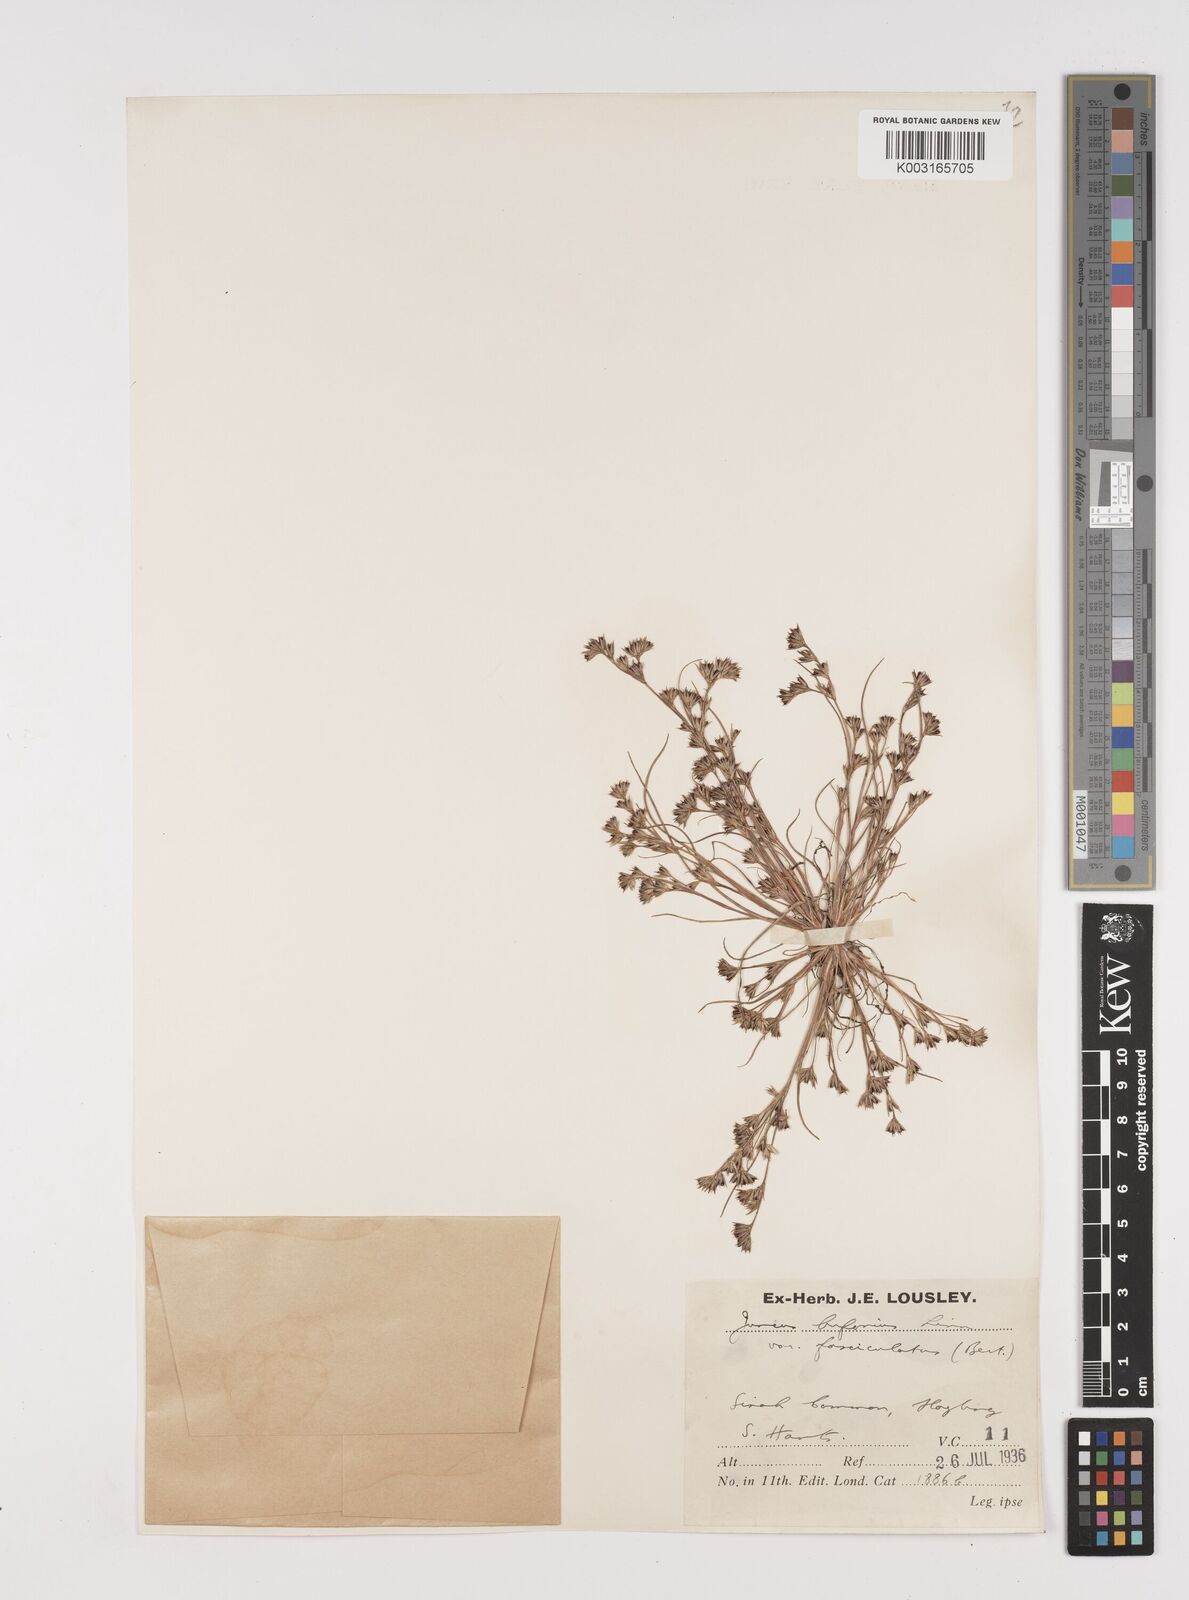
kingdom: Plantae
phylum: Tracheophyta
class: Liliopsida
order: Poales
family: Juncaceae
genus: Juncus
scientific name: Juncus bufonius
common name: Toad rush
